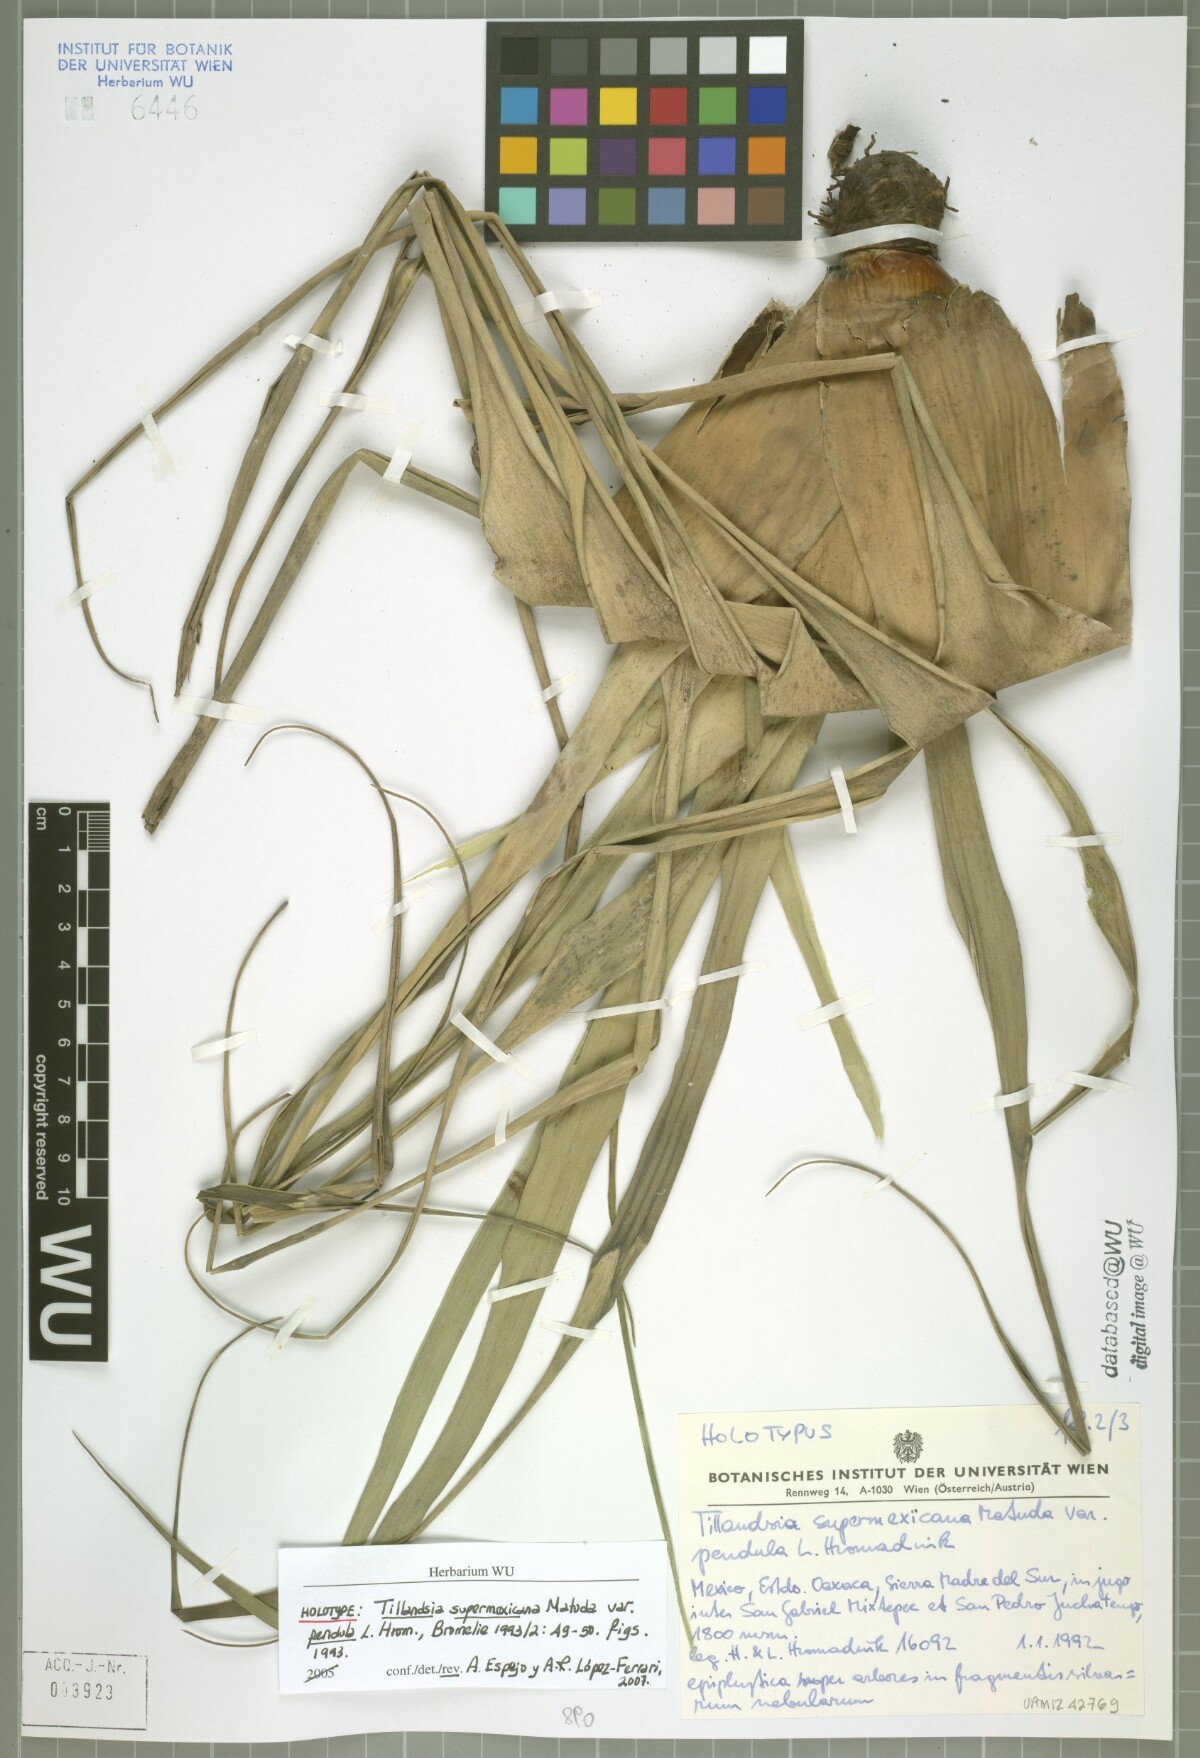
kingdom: Plantae
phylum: Tracheophyta
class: Liliopsida
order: Poales
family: Bromeliaceae
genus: Tillandsia
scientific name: Tillandsia supermexicana
